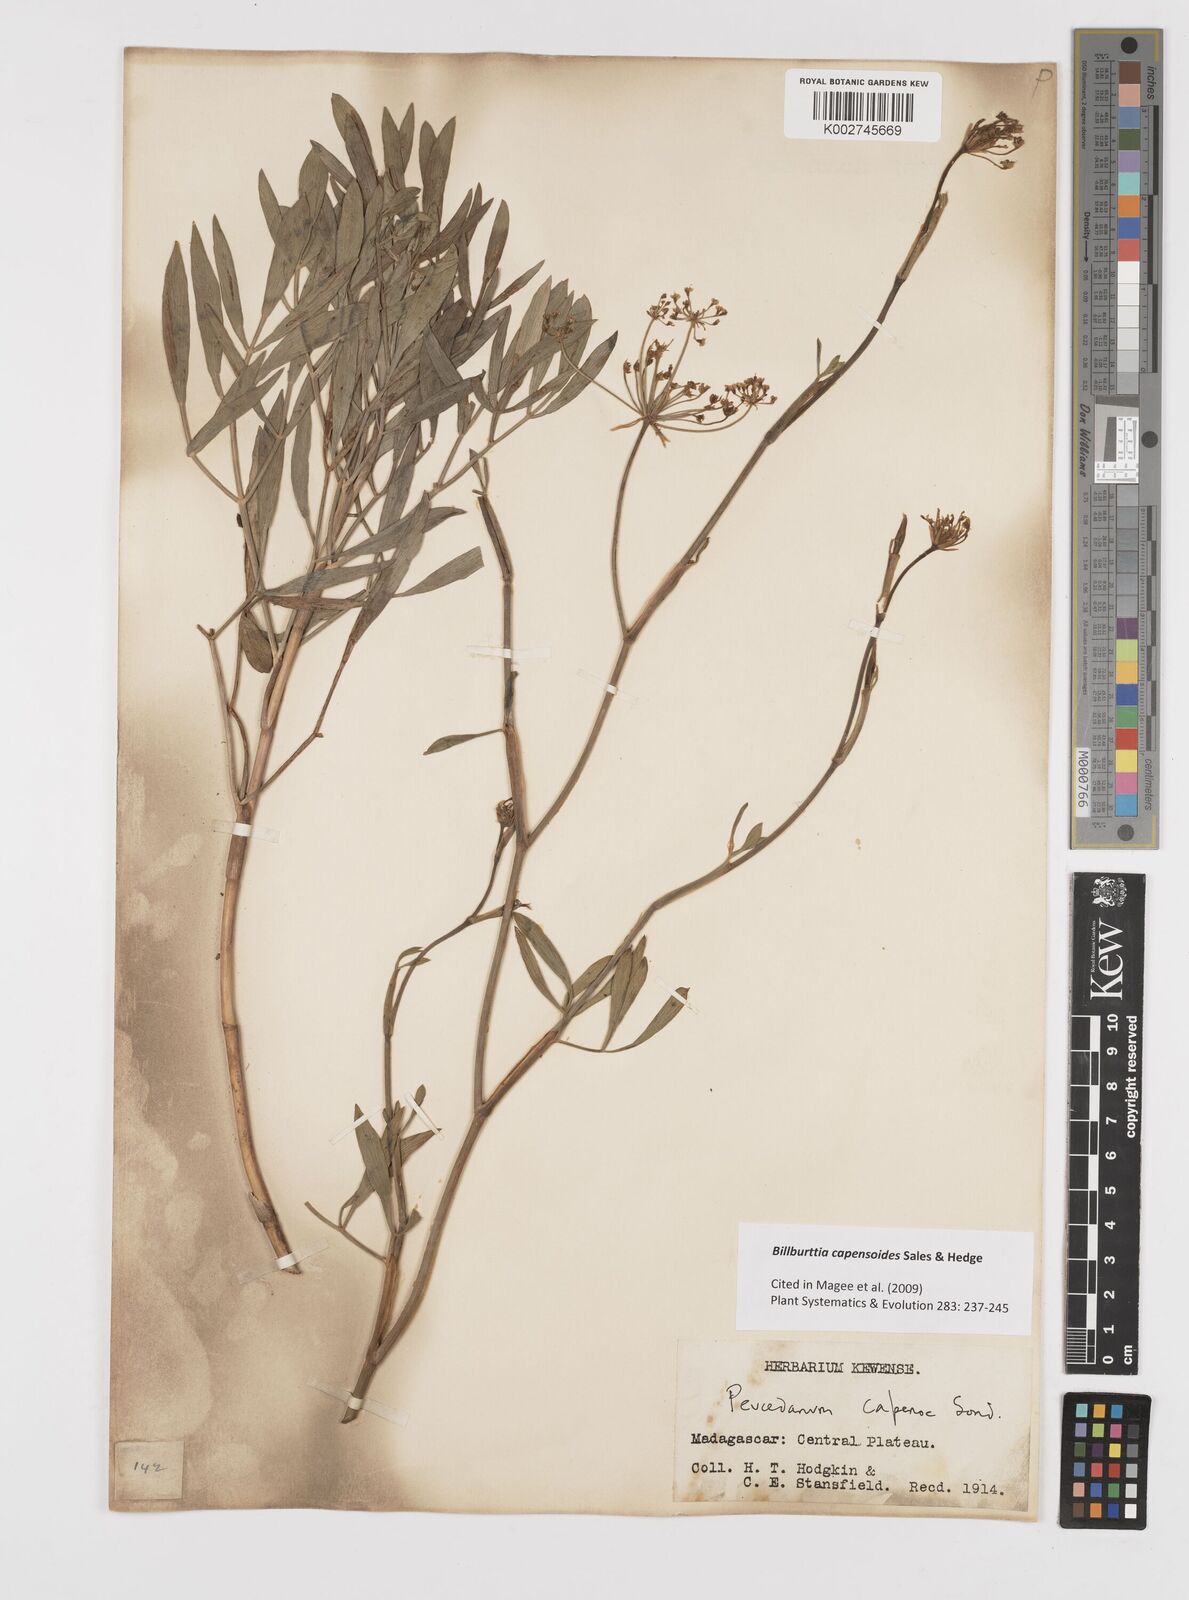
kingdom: Plantae
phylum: Tracheophyta
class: Magnoliopsida
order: Apiales
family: Apiaceae
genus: Billburttia
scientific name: Billburttia capensoides
